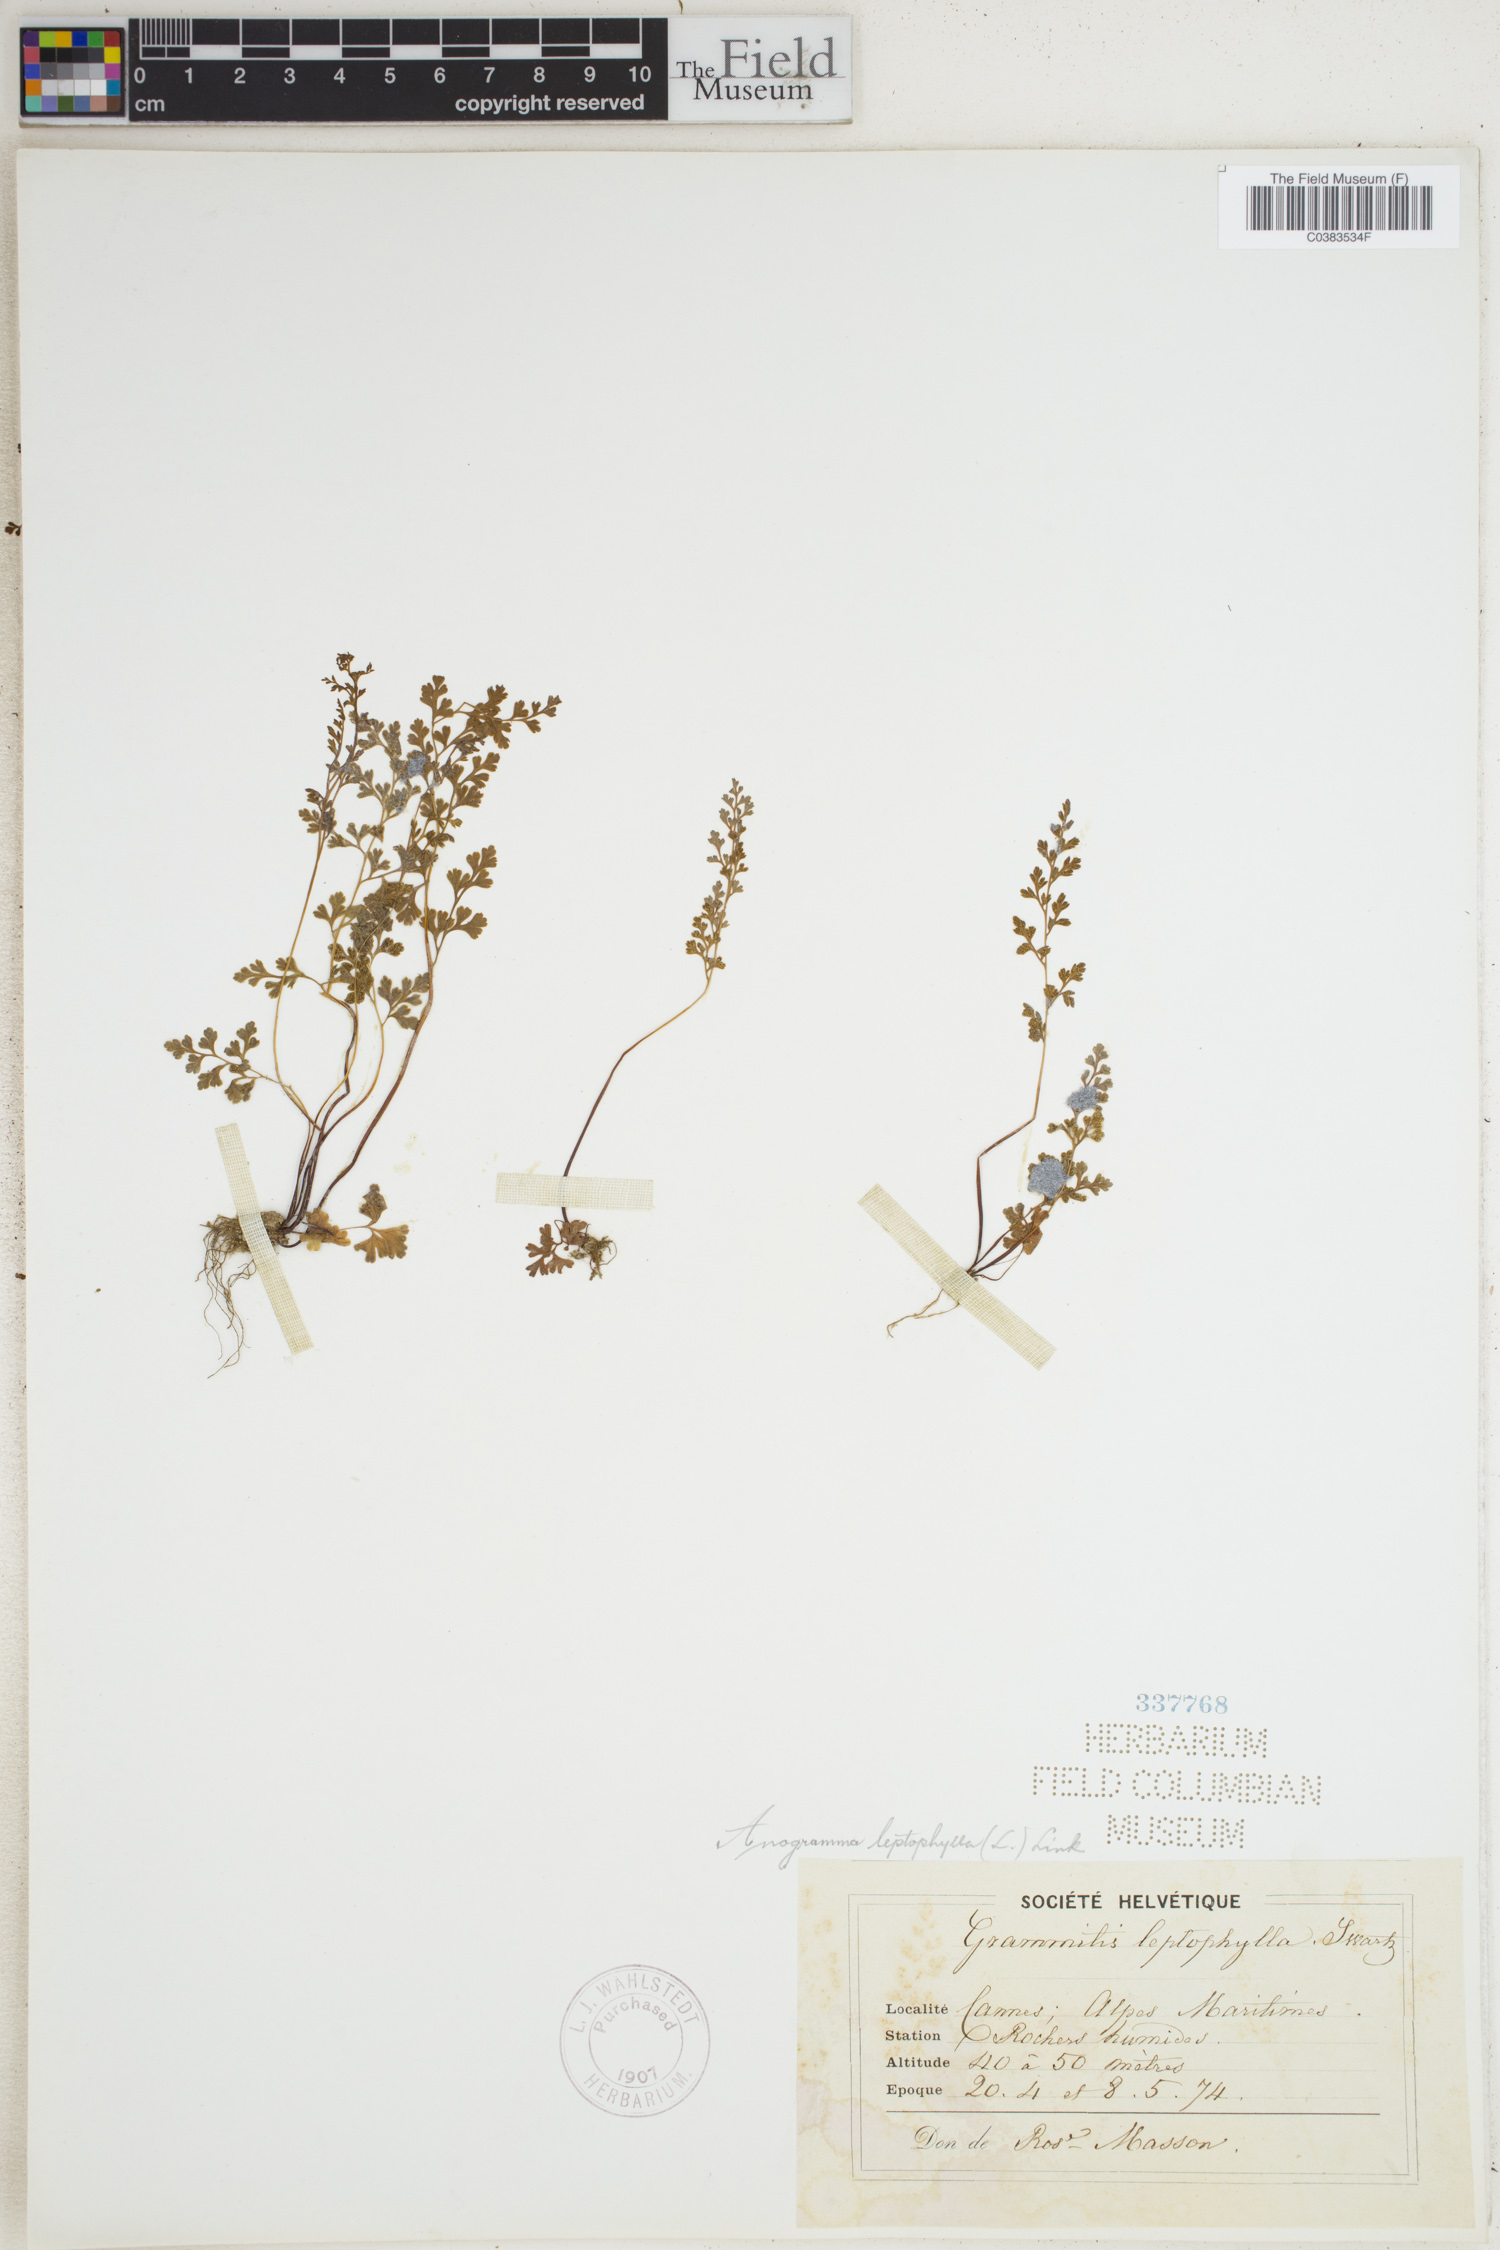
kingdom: Plantae
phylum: Tracheophyta
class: Polypodiopsida
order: Polypodiales
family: Pteridaceae
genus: Anogramma
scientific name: Anogramma leptophylla
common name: Jersey fern
